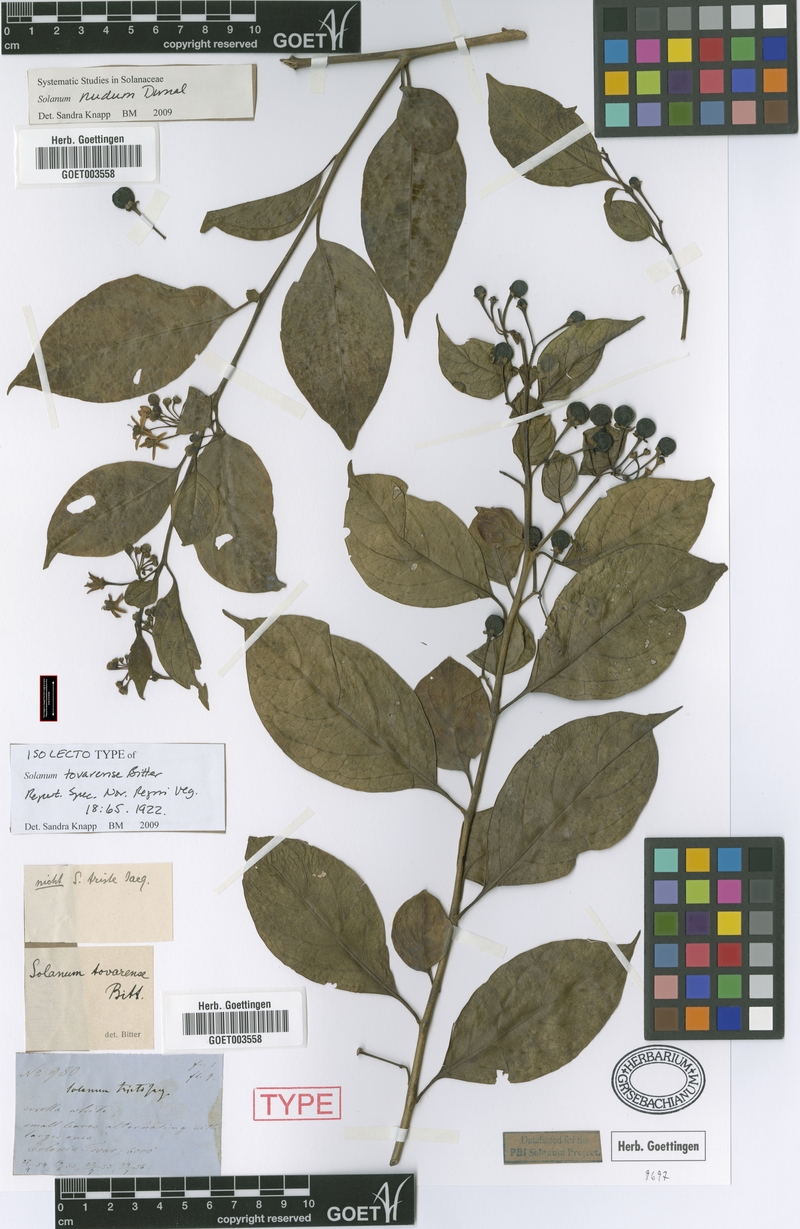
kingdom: Plantae
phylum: Tracheophyta
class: Magnoliopsida
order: Solanales
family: Solanaceae
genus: Solanum
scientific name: Solanum nudum
